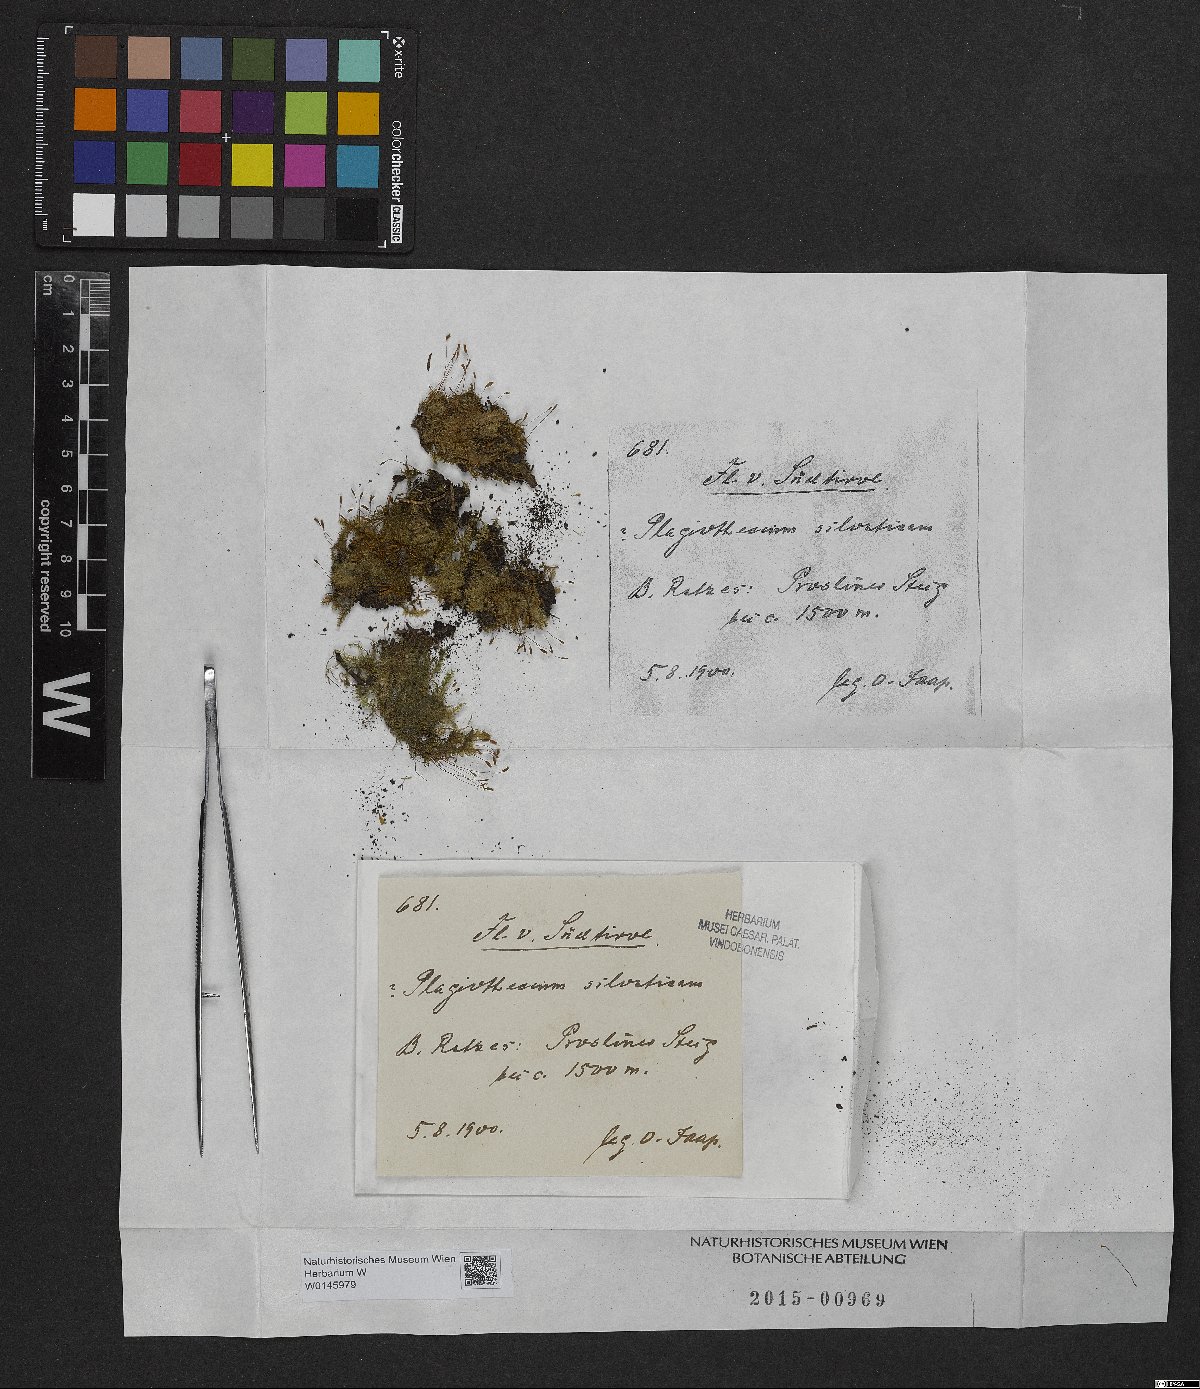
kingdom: Plantae
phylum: Bryophyta
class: Bryopsida
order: Hypnales
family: Plagiotheciaceae
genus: Herzogiella
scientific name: Herzogiella seligeri
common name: Silesian feather-moss
